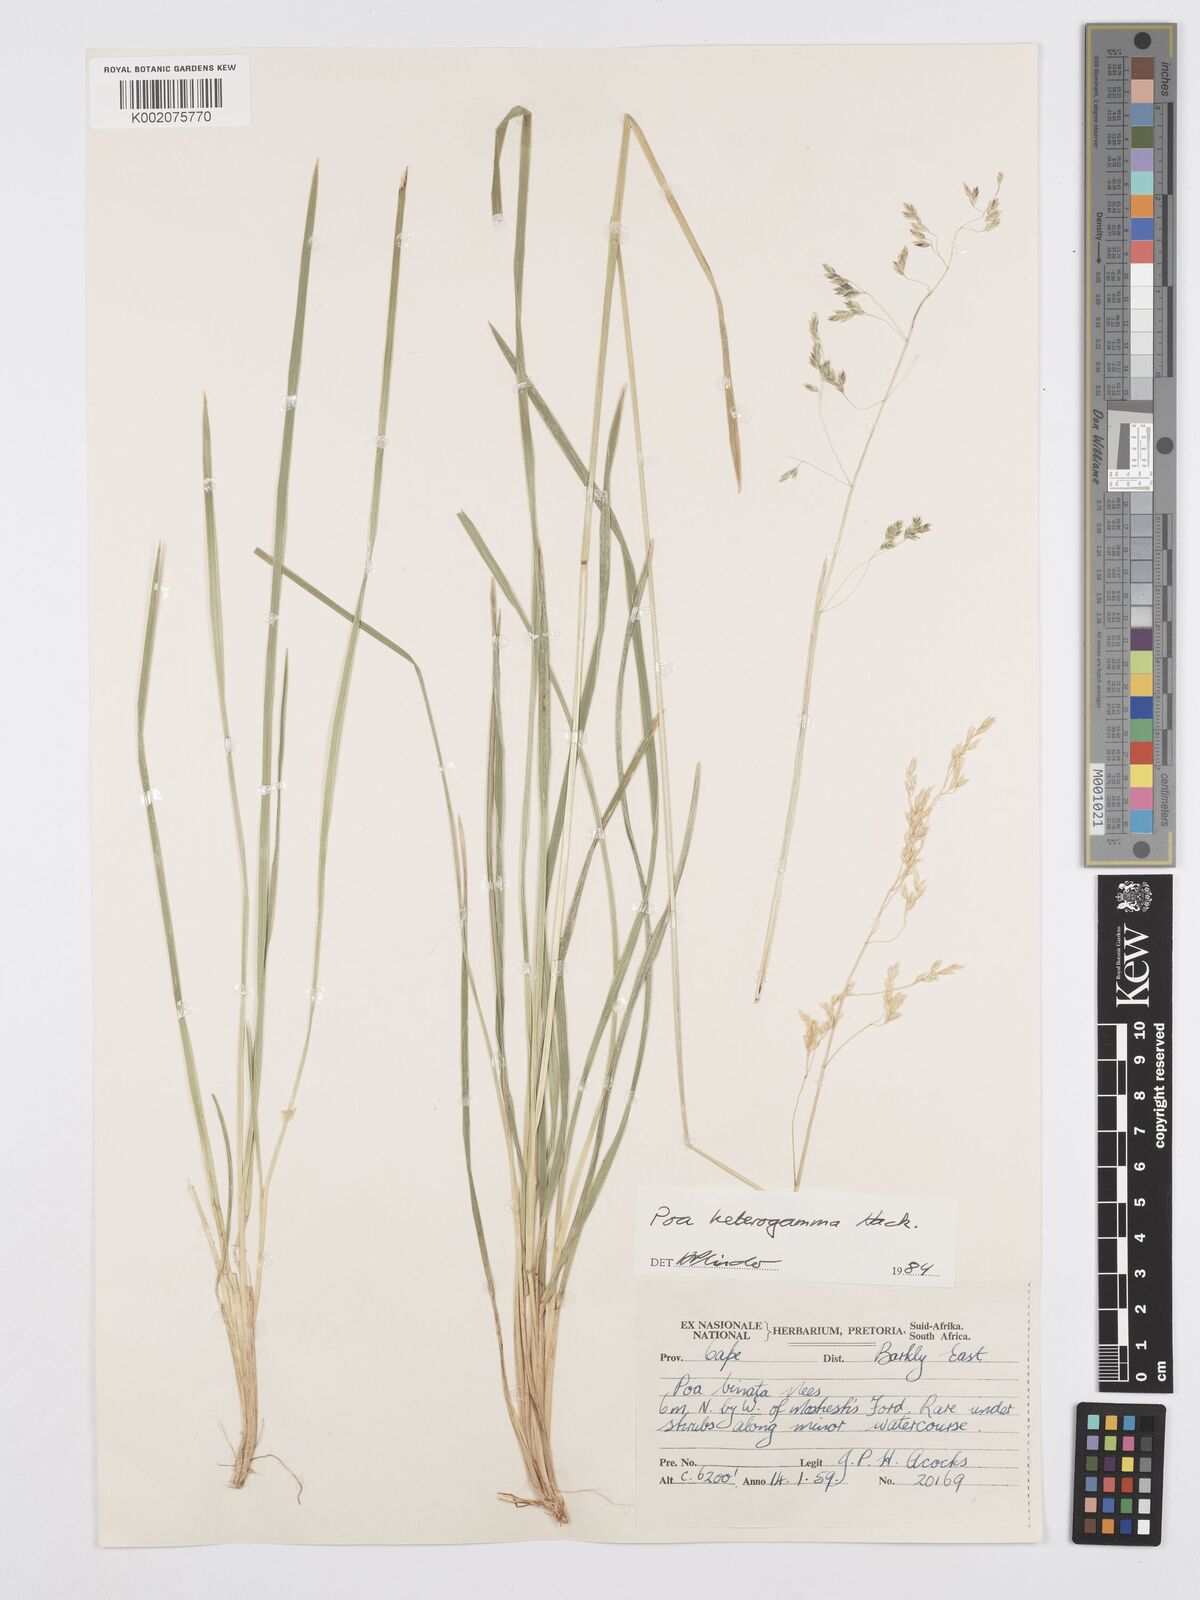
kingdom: Plantae
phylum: Tracheophyta
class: Liliopsida
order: Poales
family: Poaceae
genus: Poa
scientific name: Poa binata
